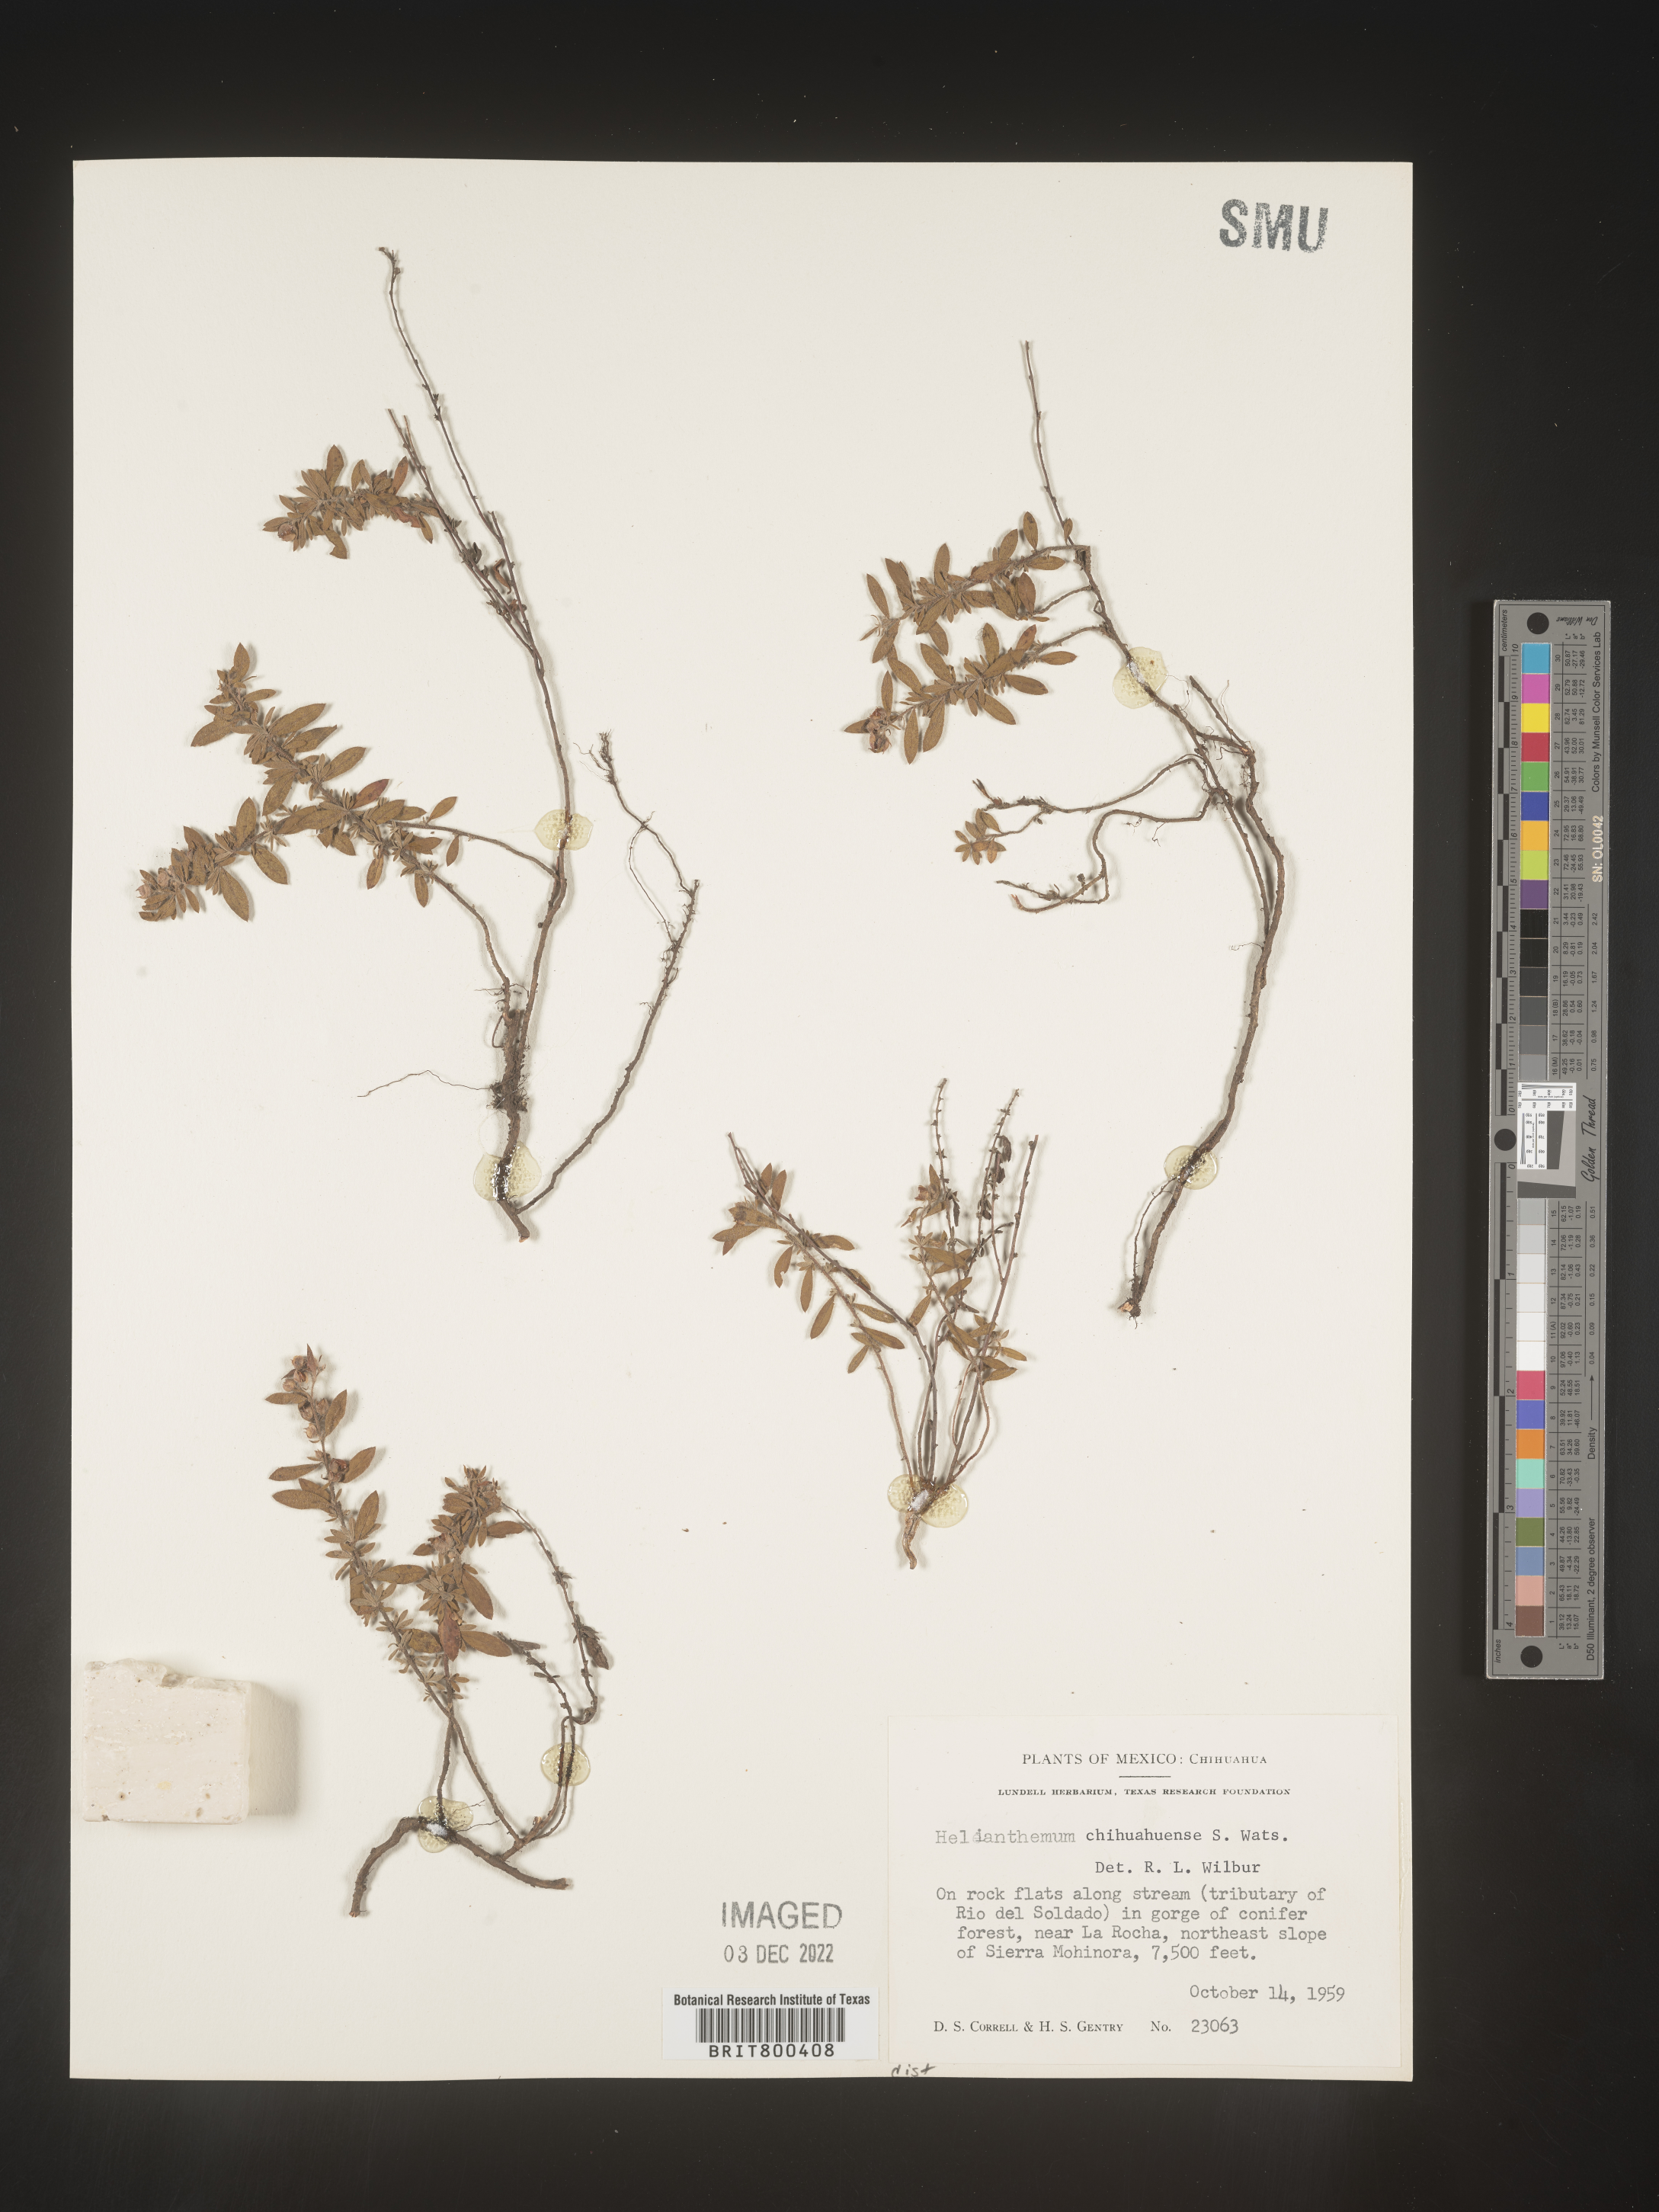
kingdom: Plantae
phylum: Tracheophyta
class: Magnoliopsida
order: Malvales
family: Cistaceae
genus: Helianthemum
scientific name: Helianthemum
